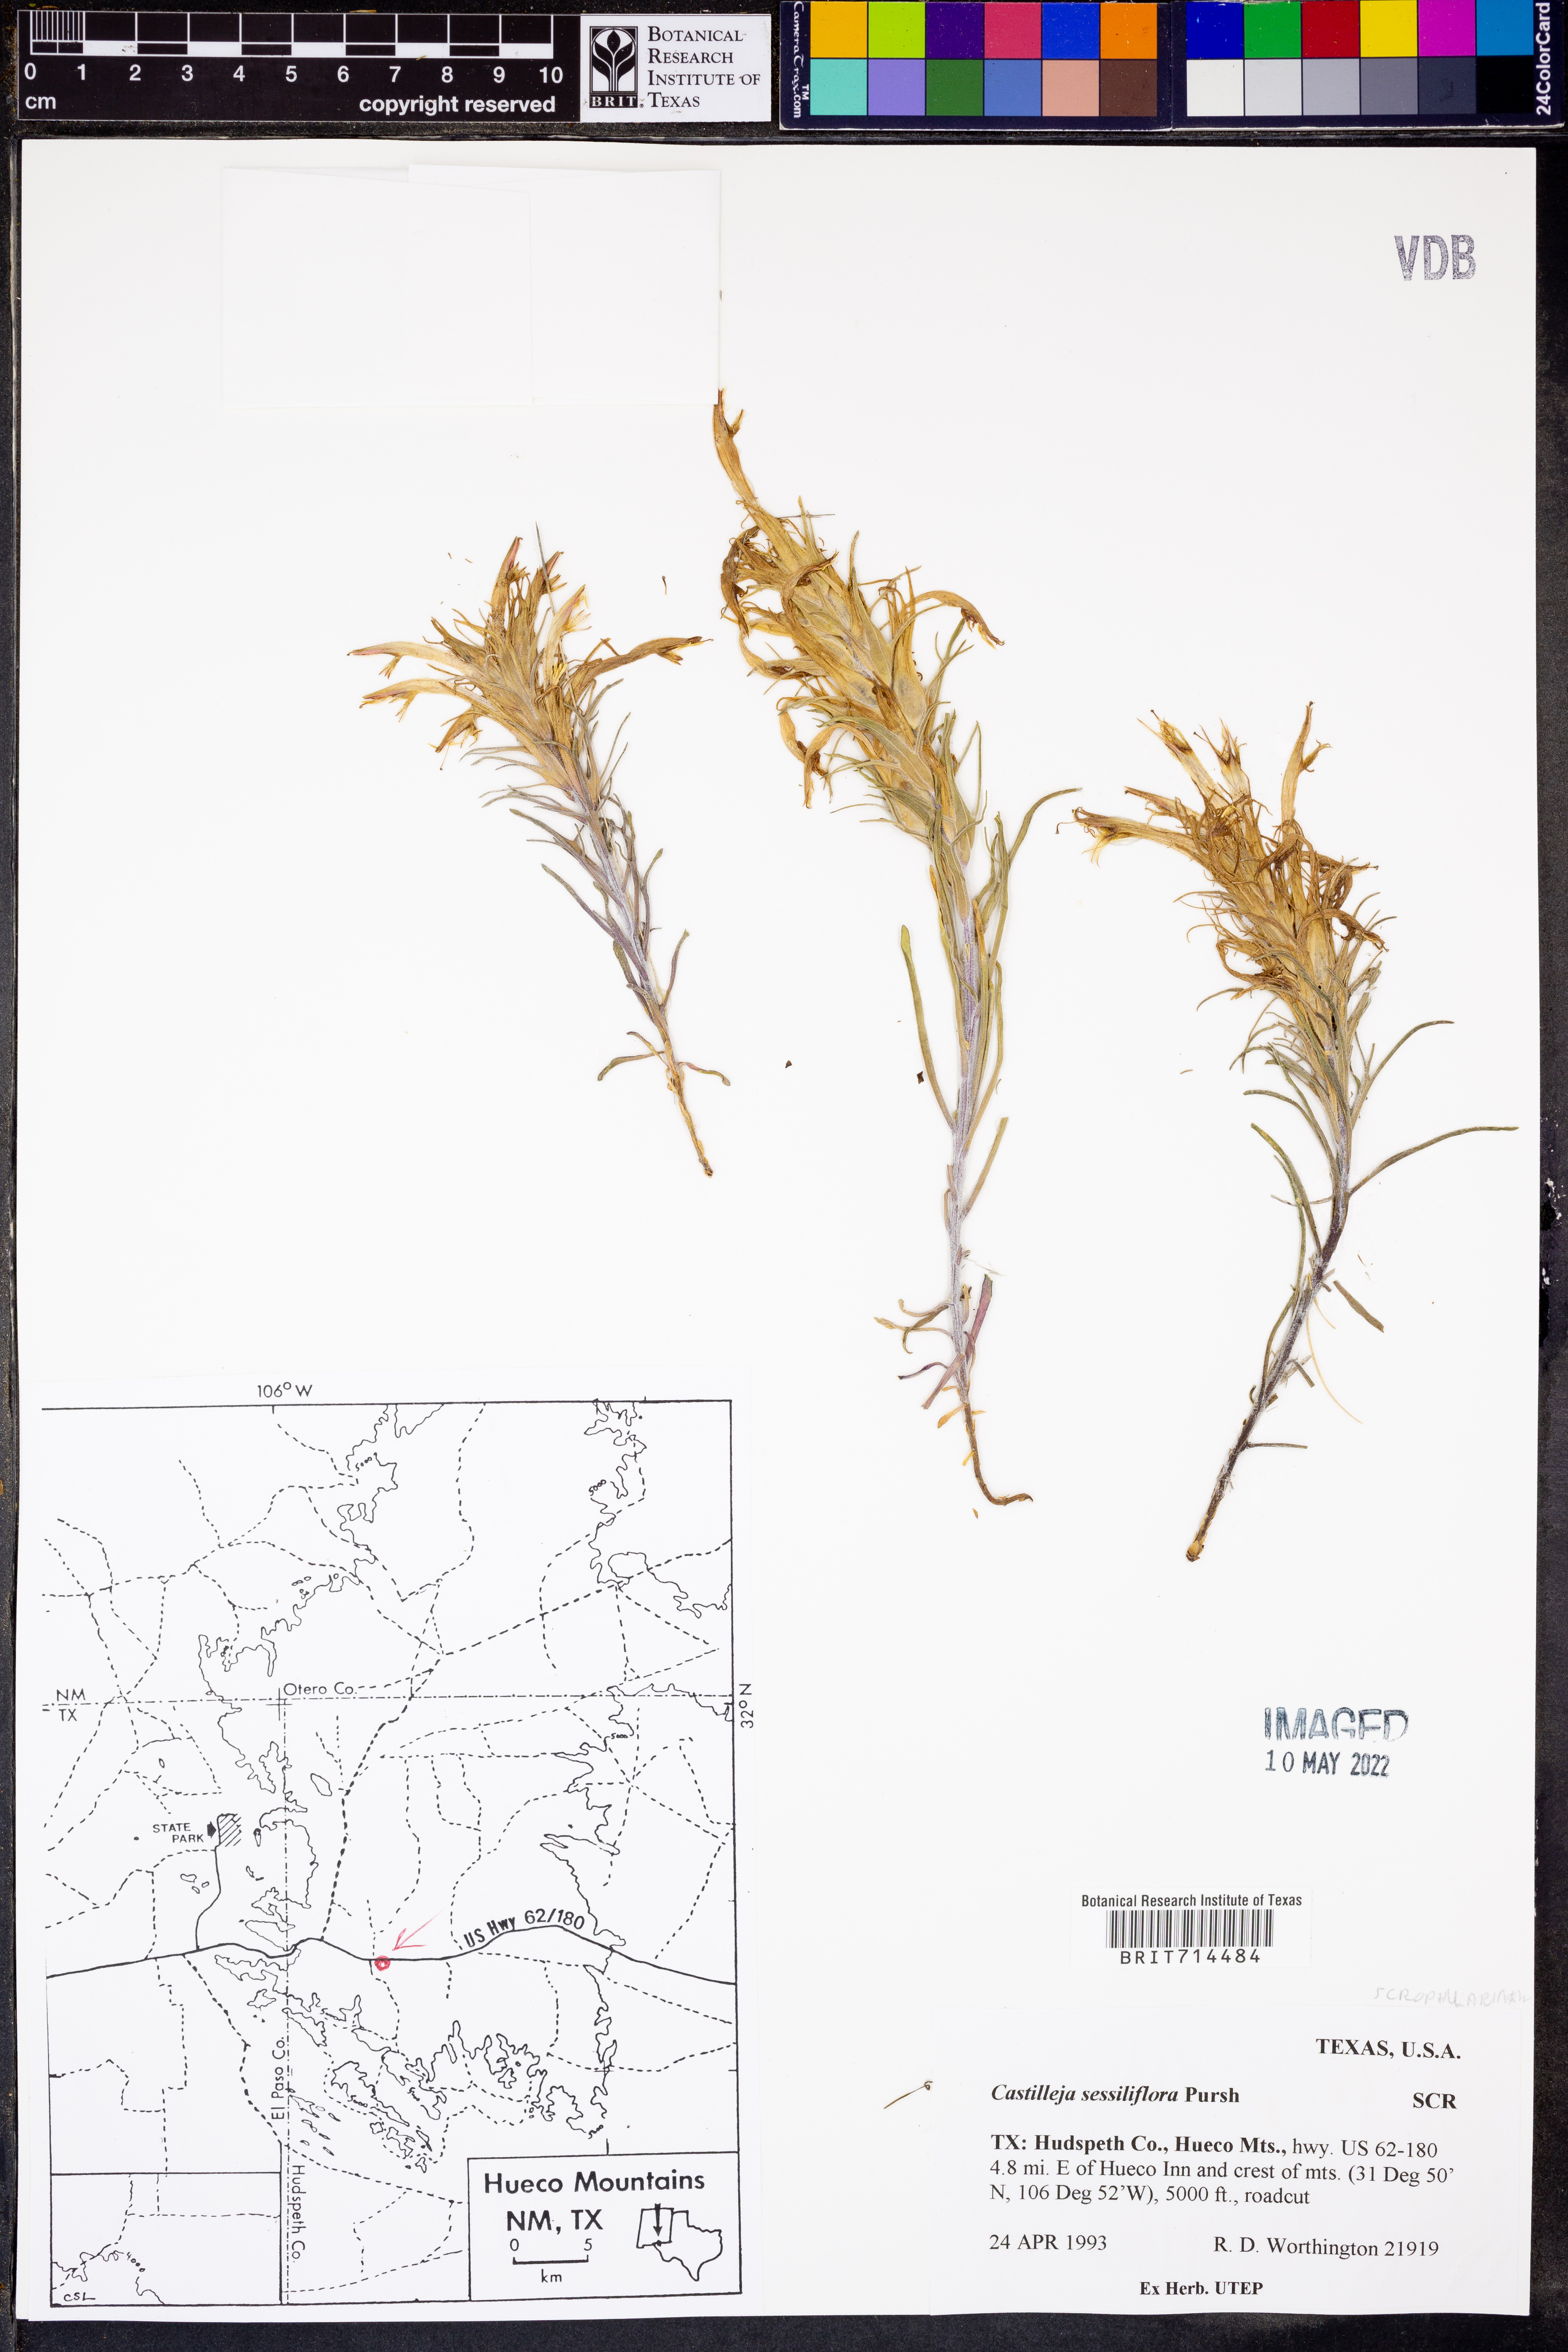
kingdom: Plantae
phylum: Tracheophyta
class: Magnoliopsida
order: Lamiales
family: Orobanchaceae
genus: Castilleja
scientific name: Castilleja sessiliflora
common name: Downy paintbrush
